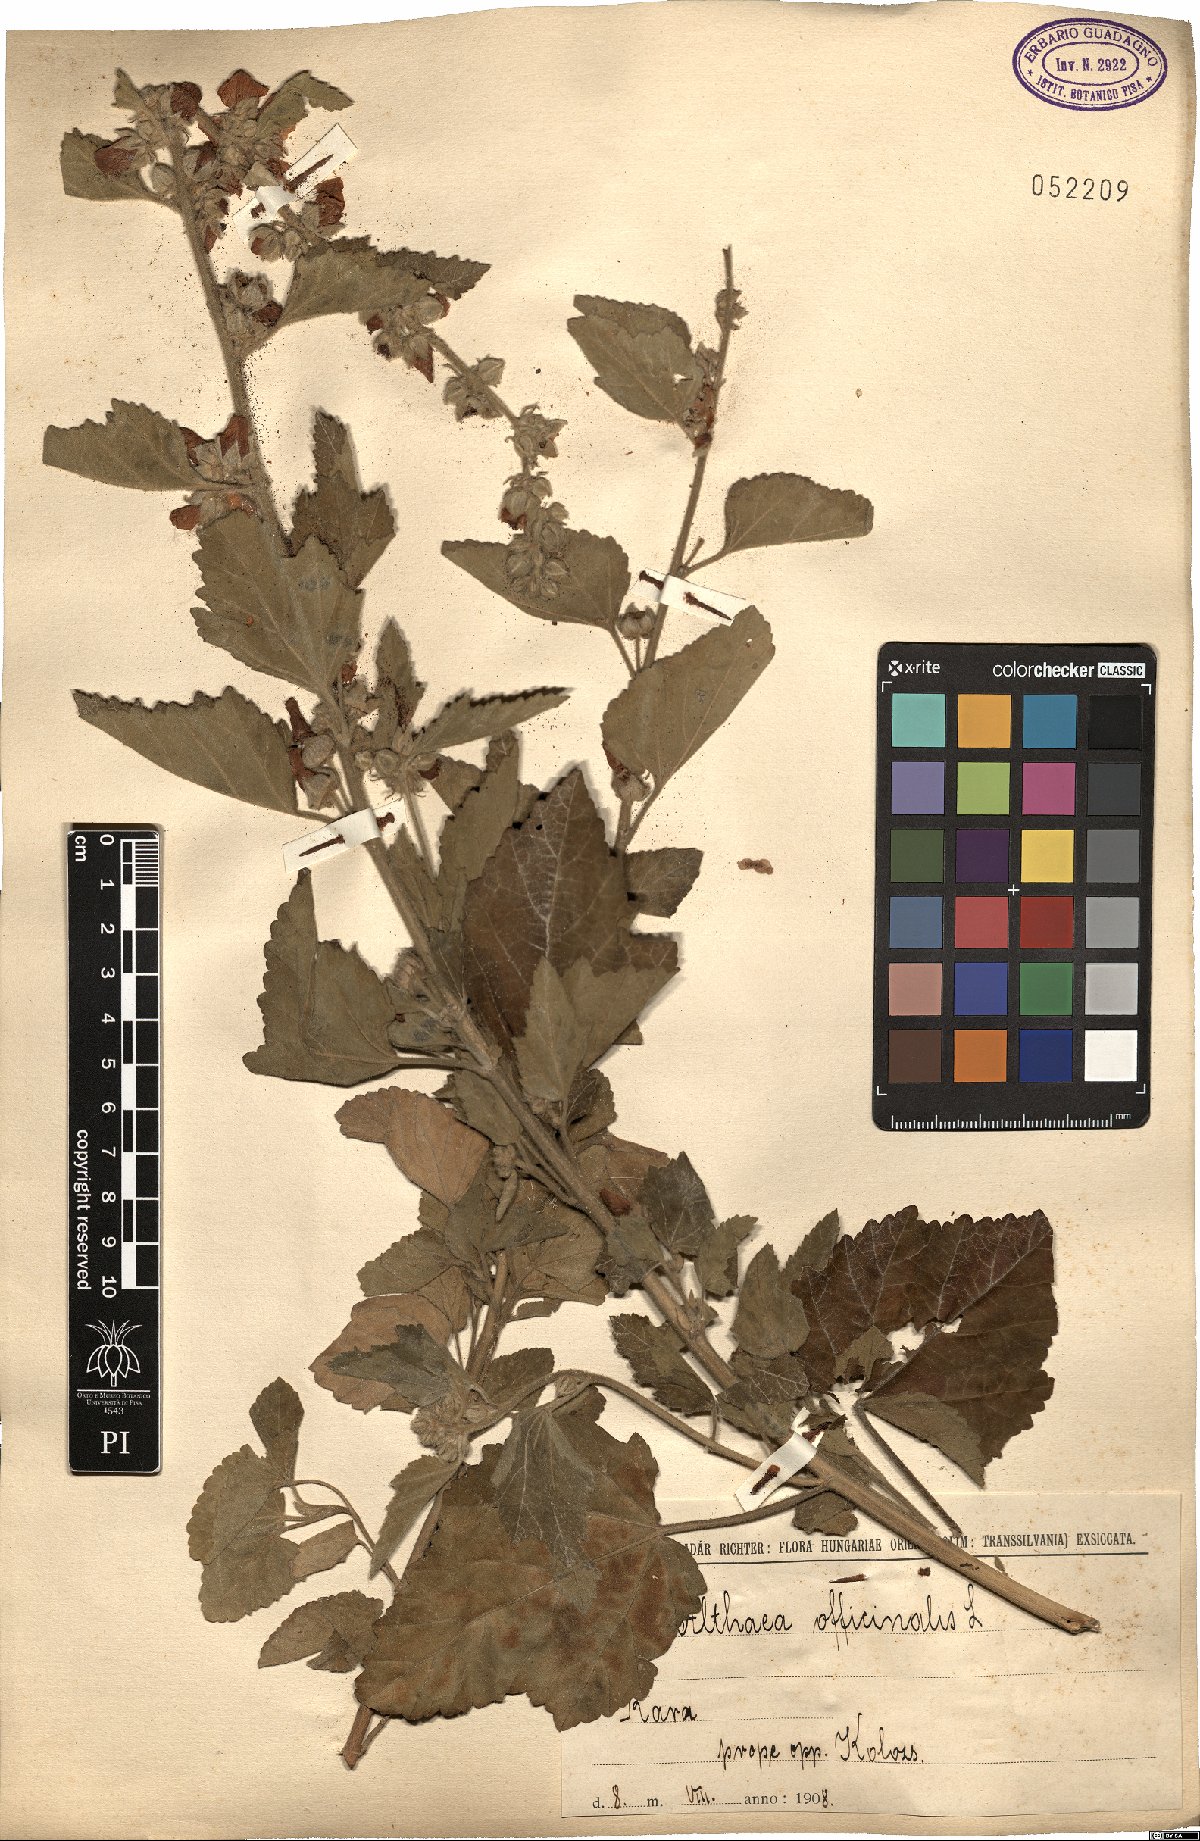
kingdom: Plantae
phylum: Tracheophyta
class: Magnoliopsida
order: Malvales
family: Malvaceae
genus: Althaea
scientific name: Althaea officinalis
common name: Marsh-mallow
